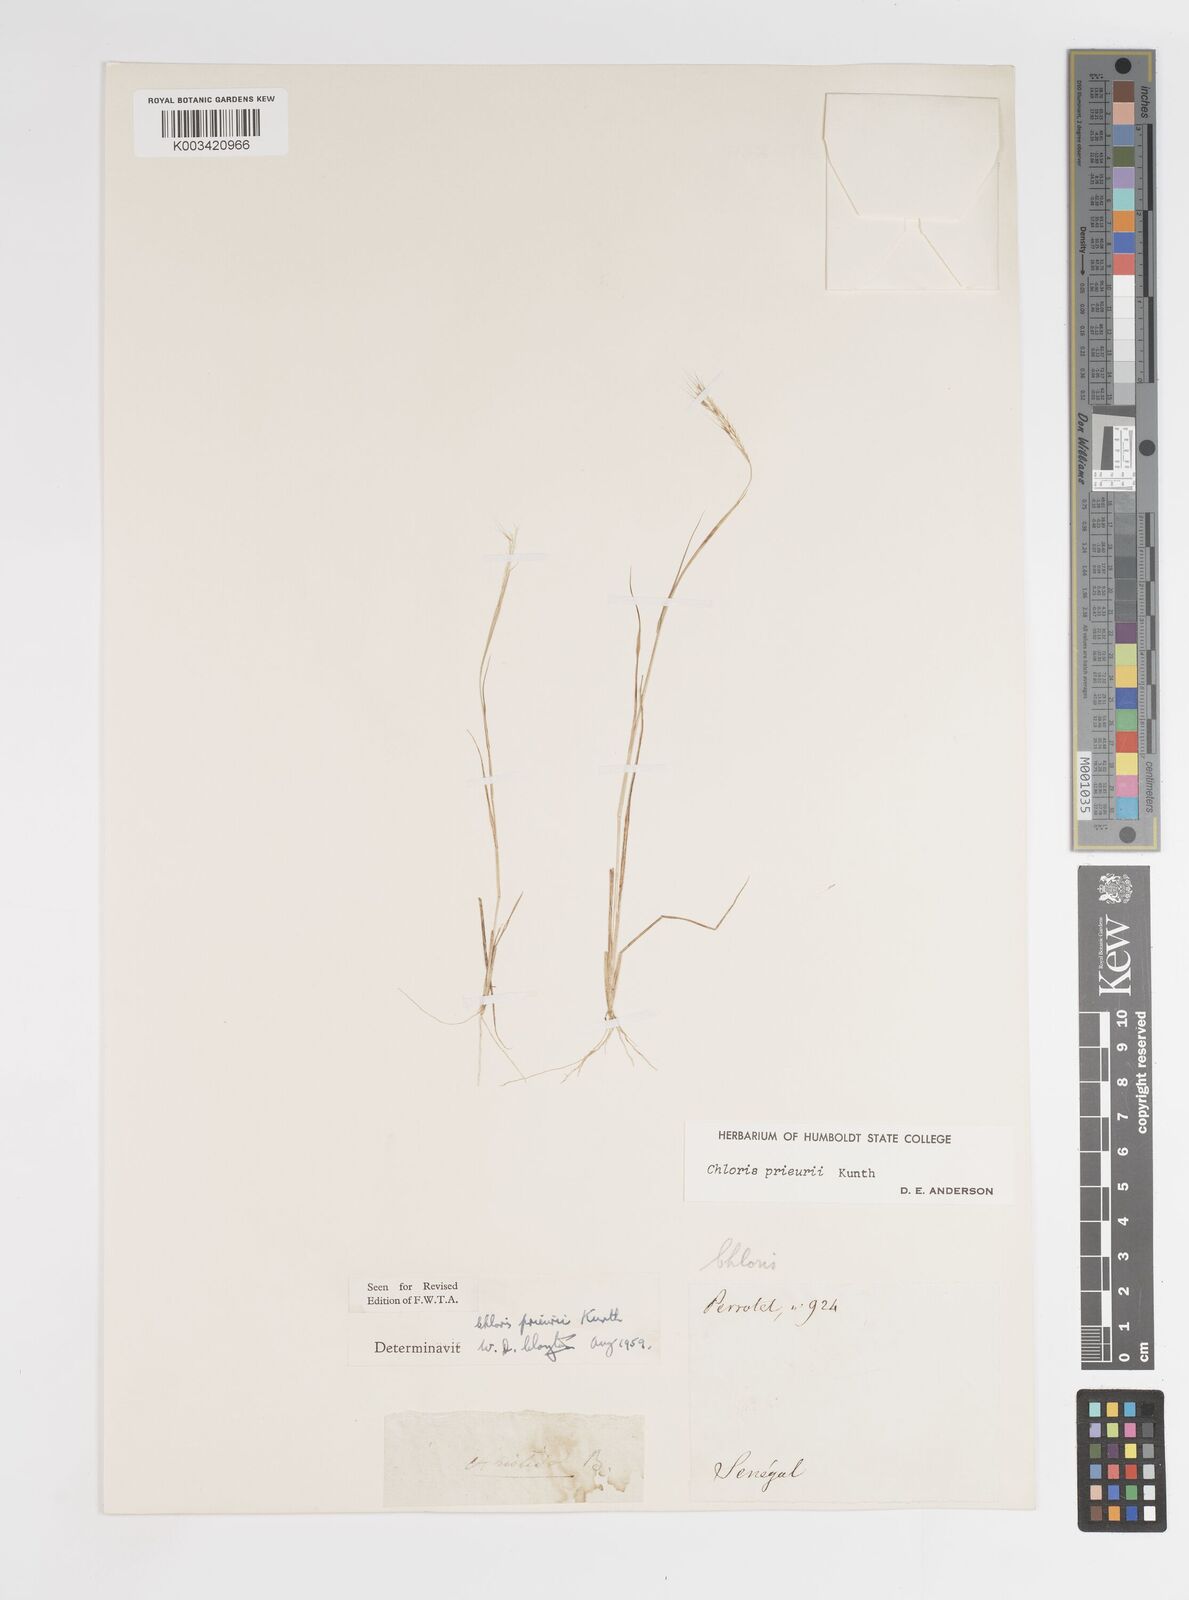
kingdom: Plantae
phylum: Tracheophyta
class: Liliopsida
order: Poales
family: Poaceae
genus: Enteropogon
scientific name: Enteropogon prieurii
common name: Prieur's umbrellagrass
